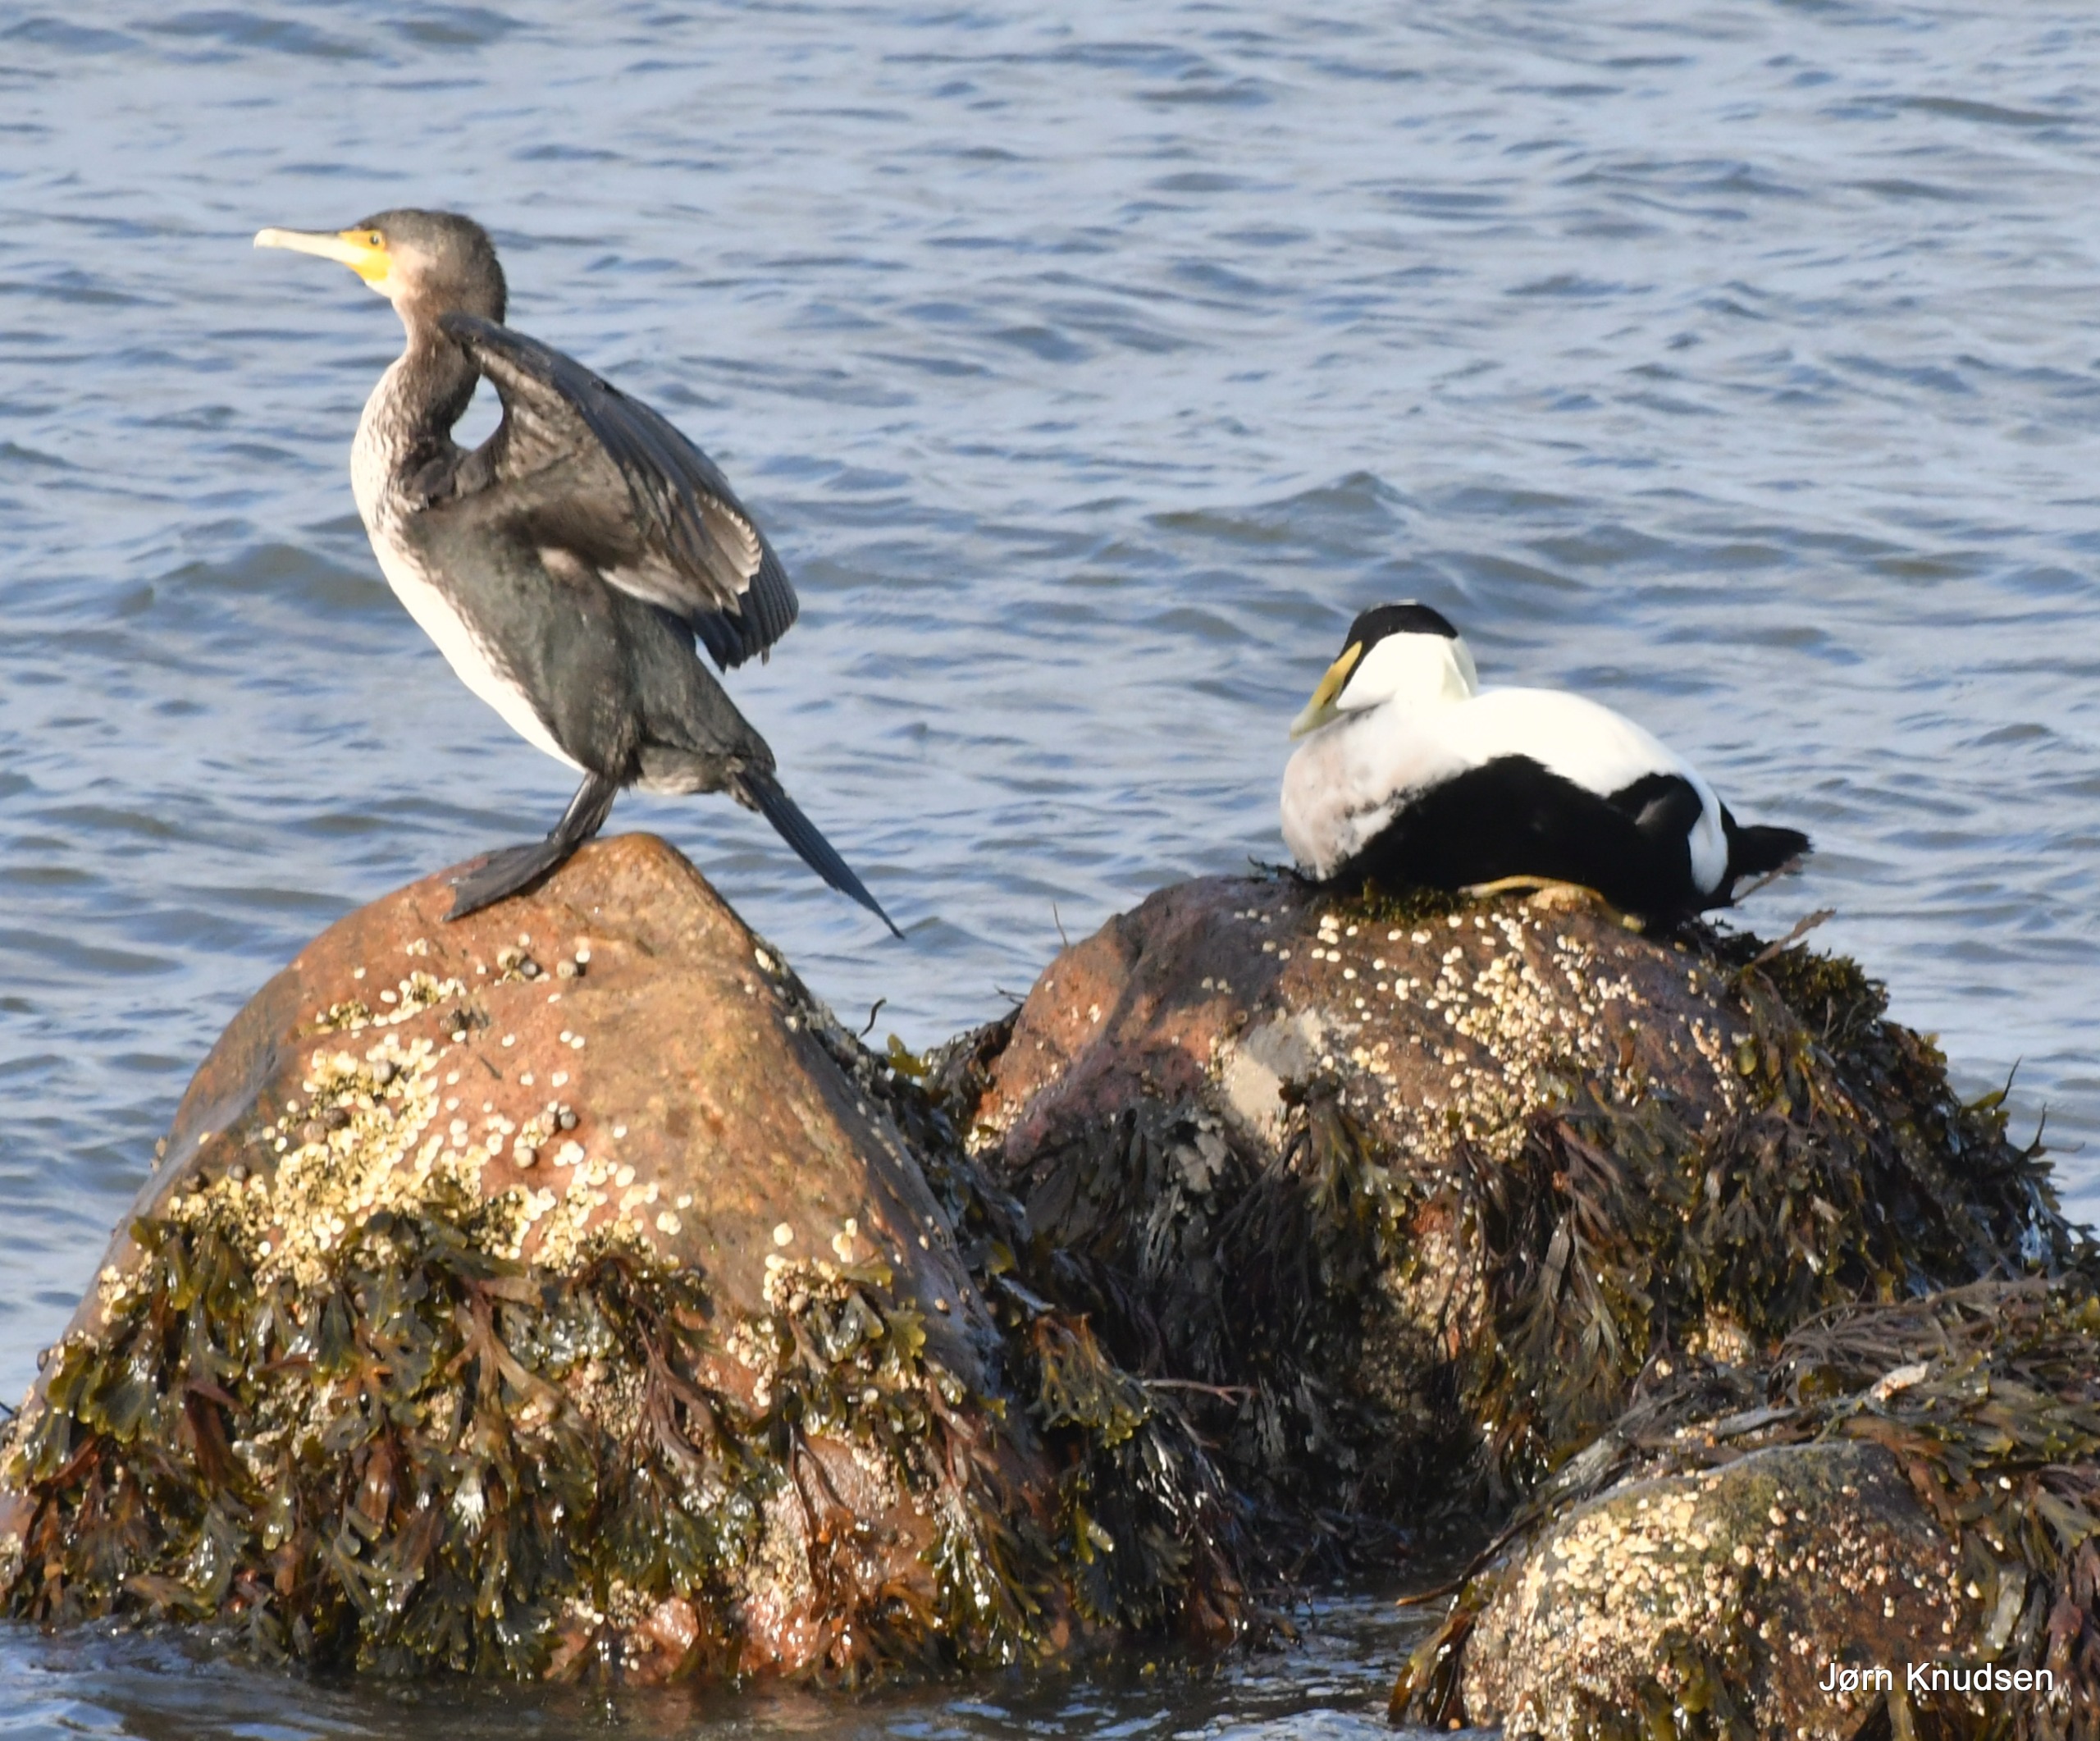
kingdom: Animalia
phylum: Chordata
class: Aves
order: Suliformes
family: Phalacrocoracidae
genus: Phalacrocorax
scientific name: Phalacrocorax carbo
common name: Skarv
